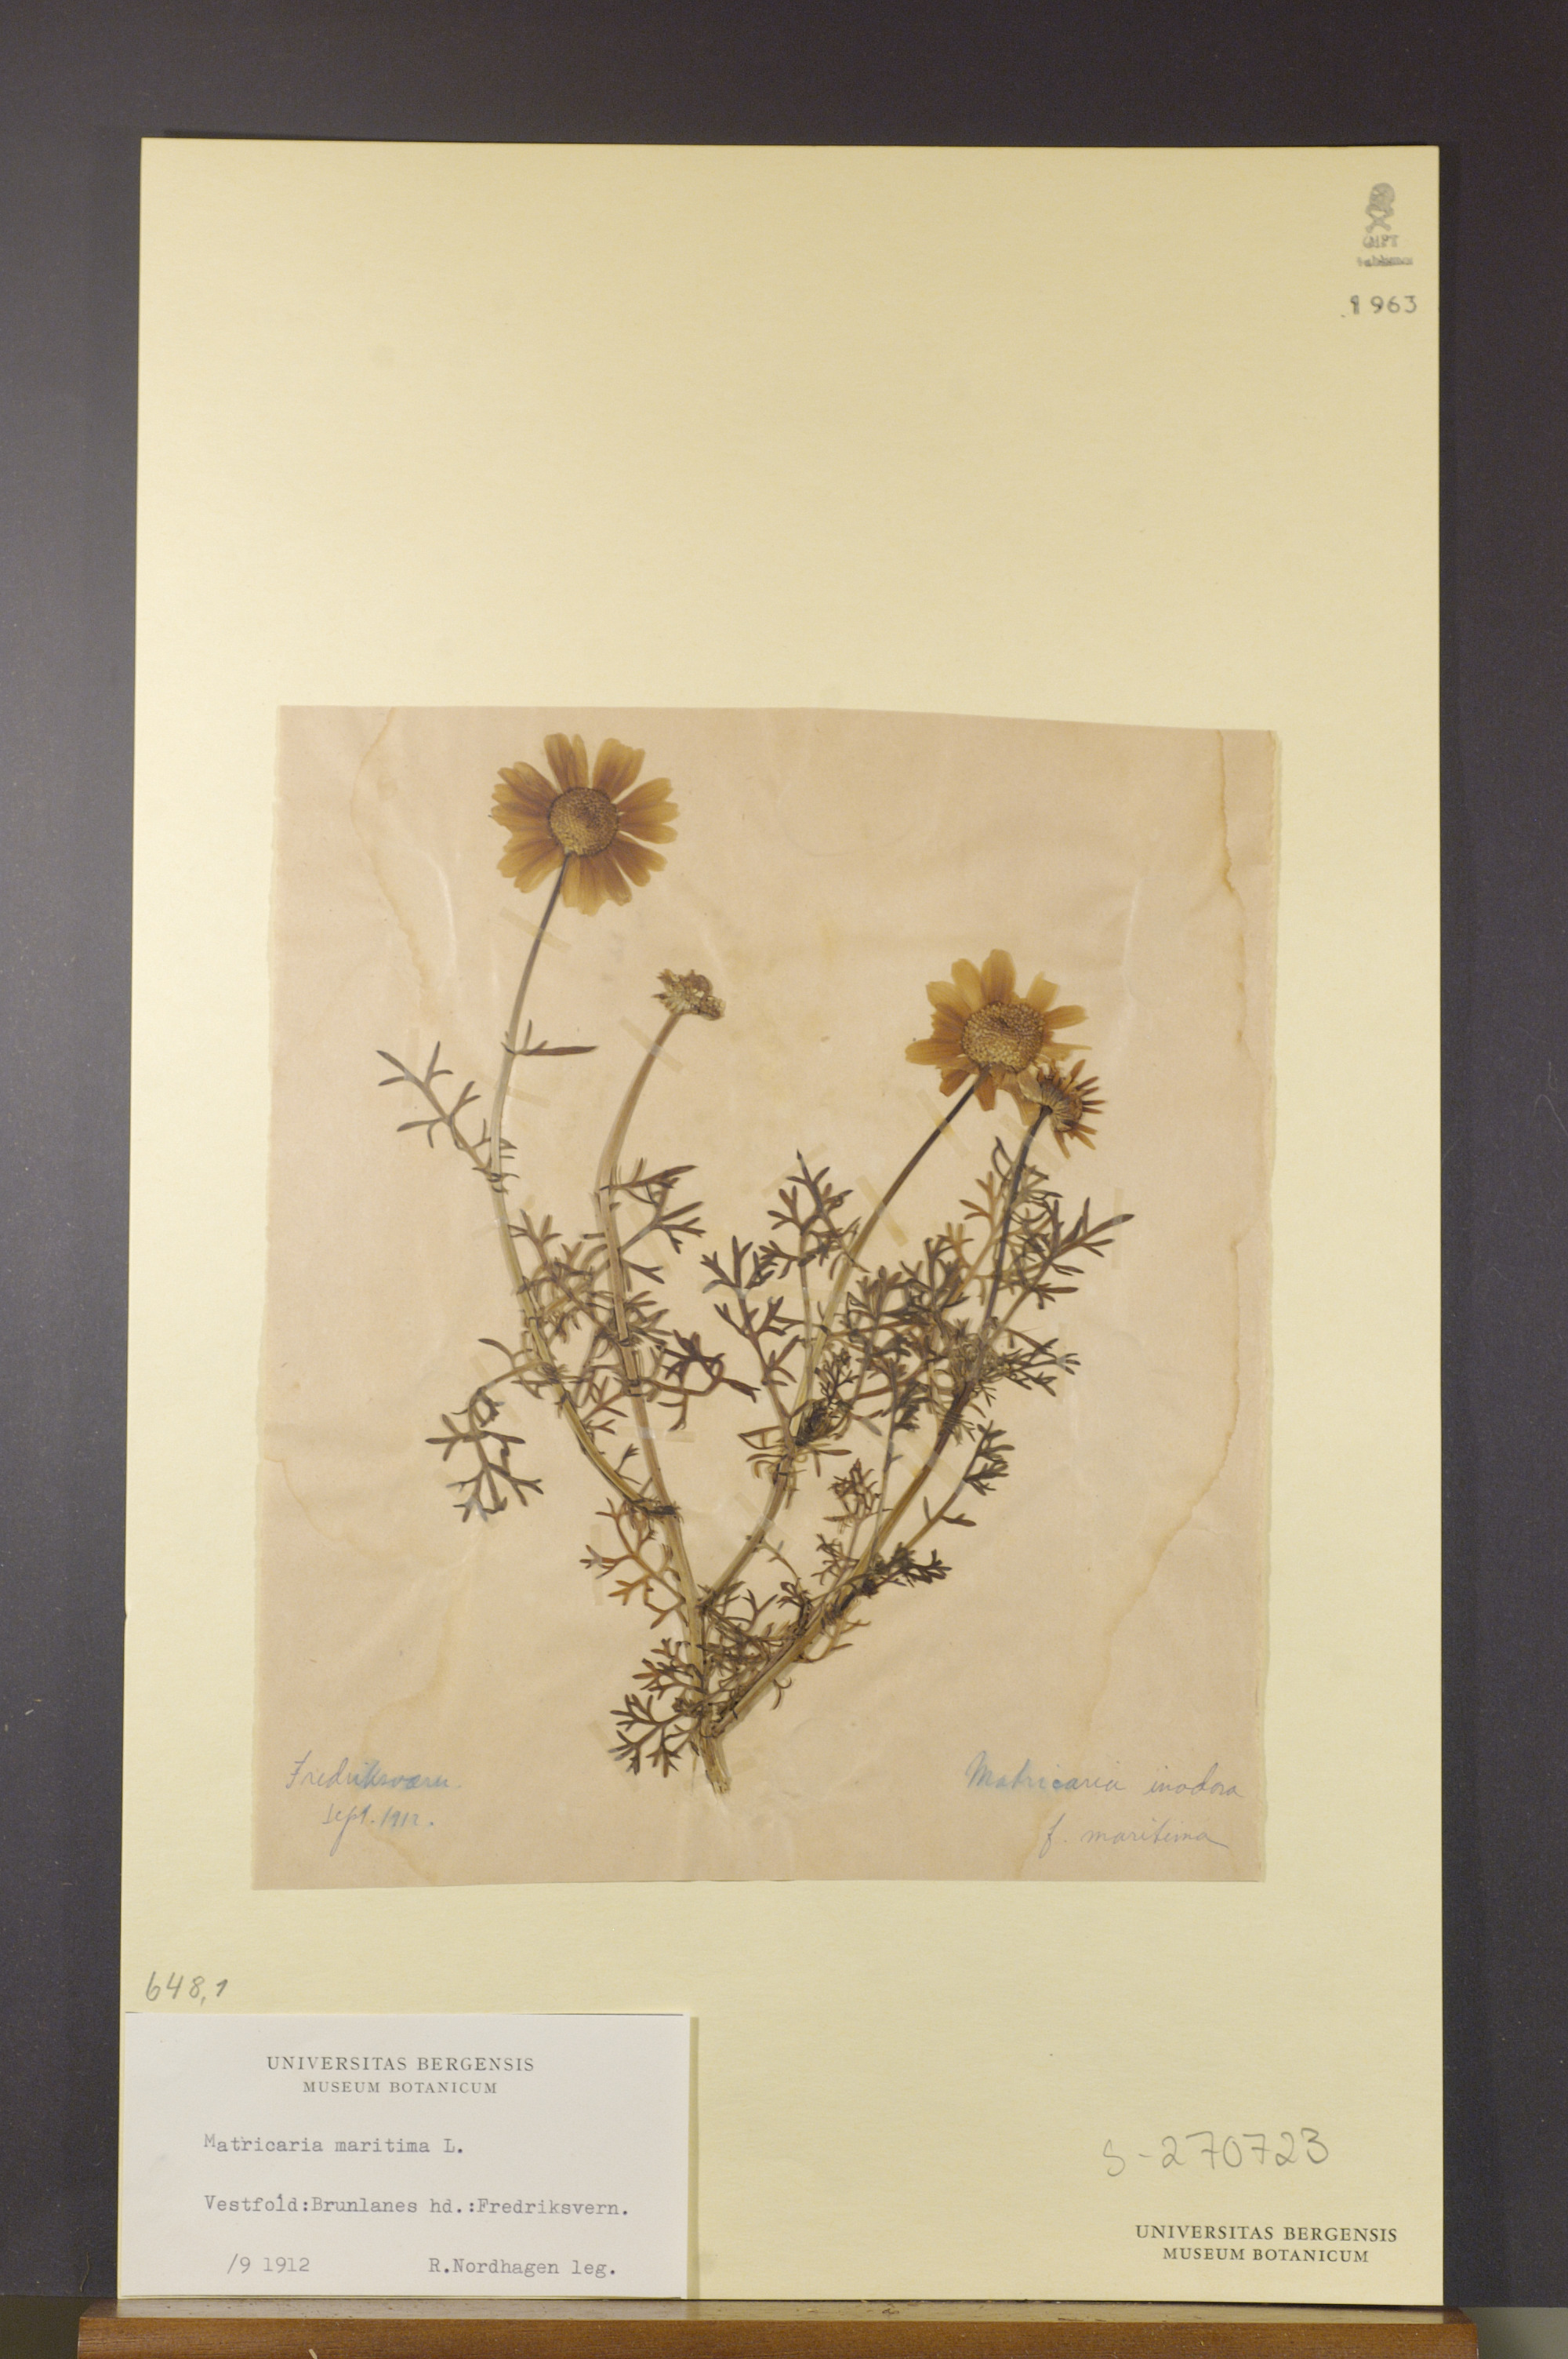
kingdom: Plantae
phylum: Tracheophyta
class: Magnoliopsida
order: Asterales
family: Asteraceae
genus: Tripleurospermum
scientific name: Tripleurospermum inodorum
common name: Scentless mayweed
